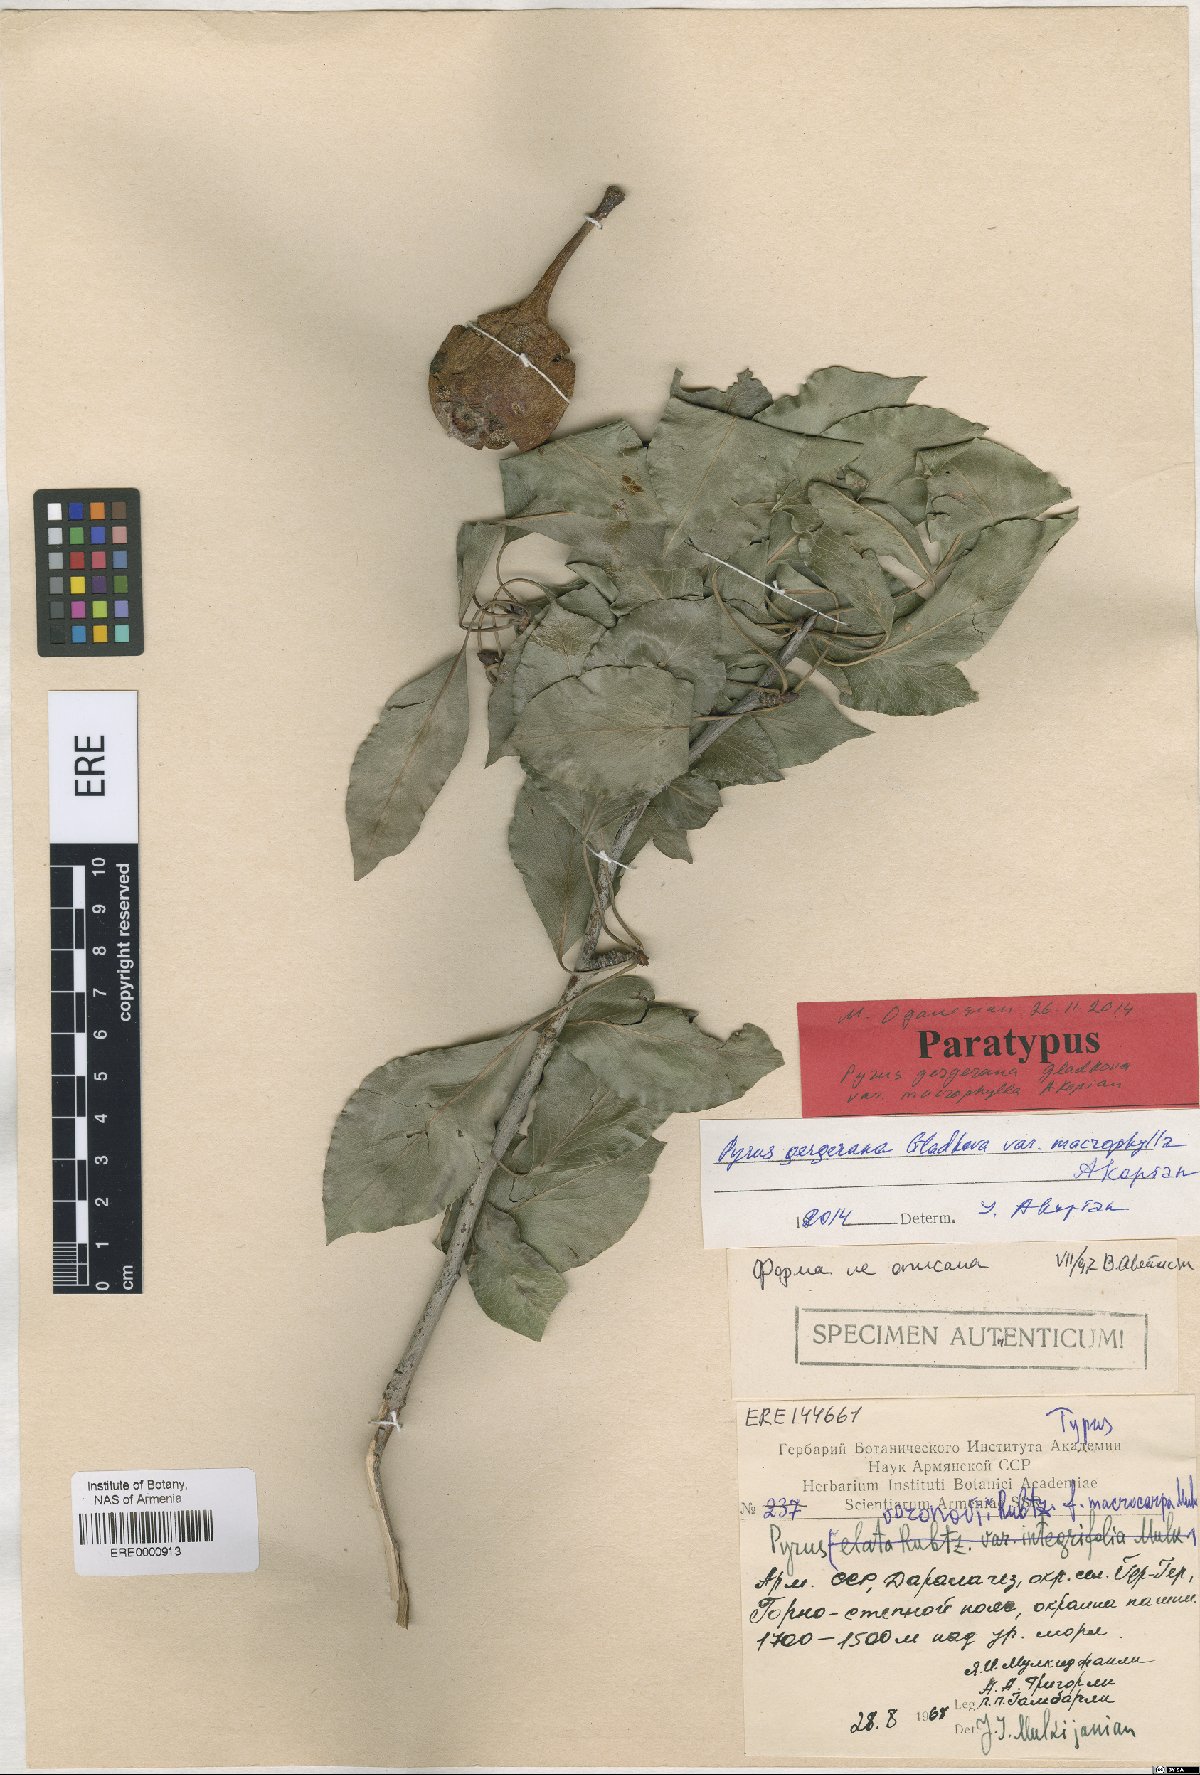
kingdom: Plantae
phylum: Tracheophyta
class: Magnoliopsida
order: Rosales
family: Rosaceae
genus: Pyrus
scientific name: Pyrus gergerana
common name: Gergeranian pear
